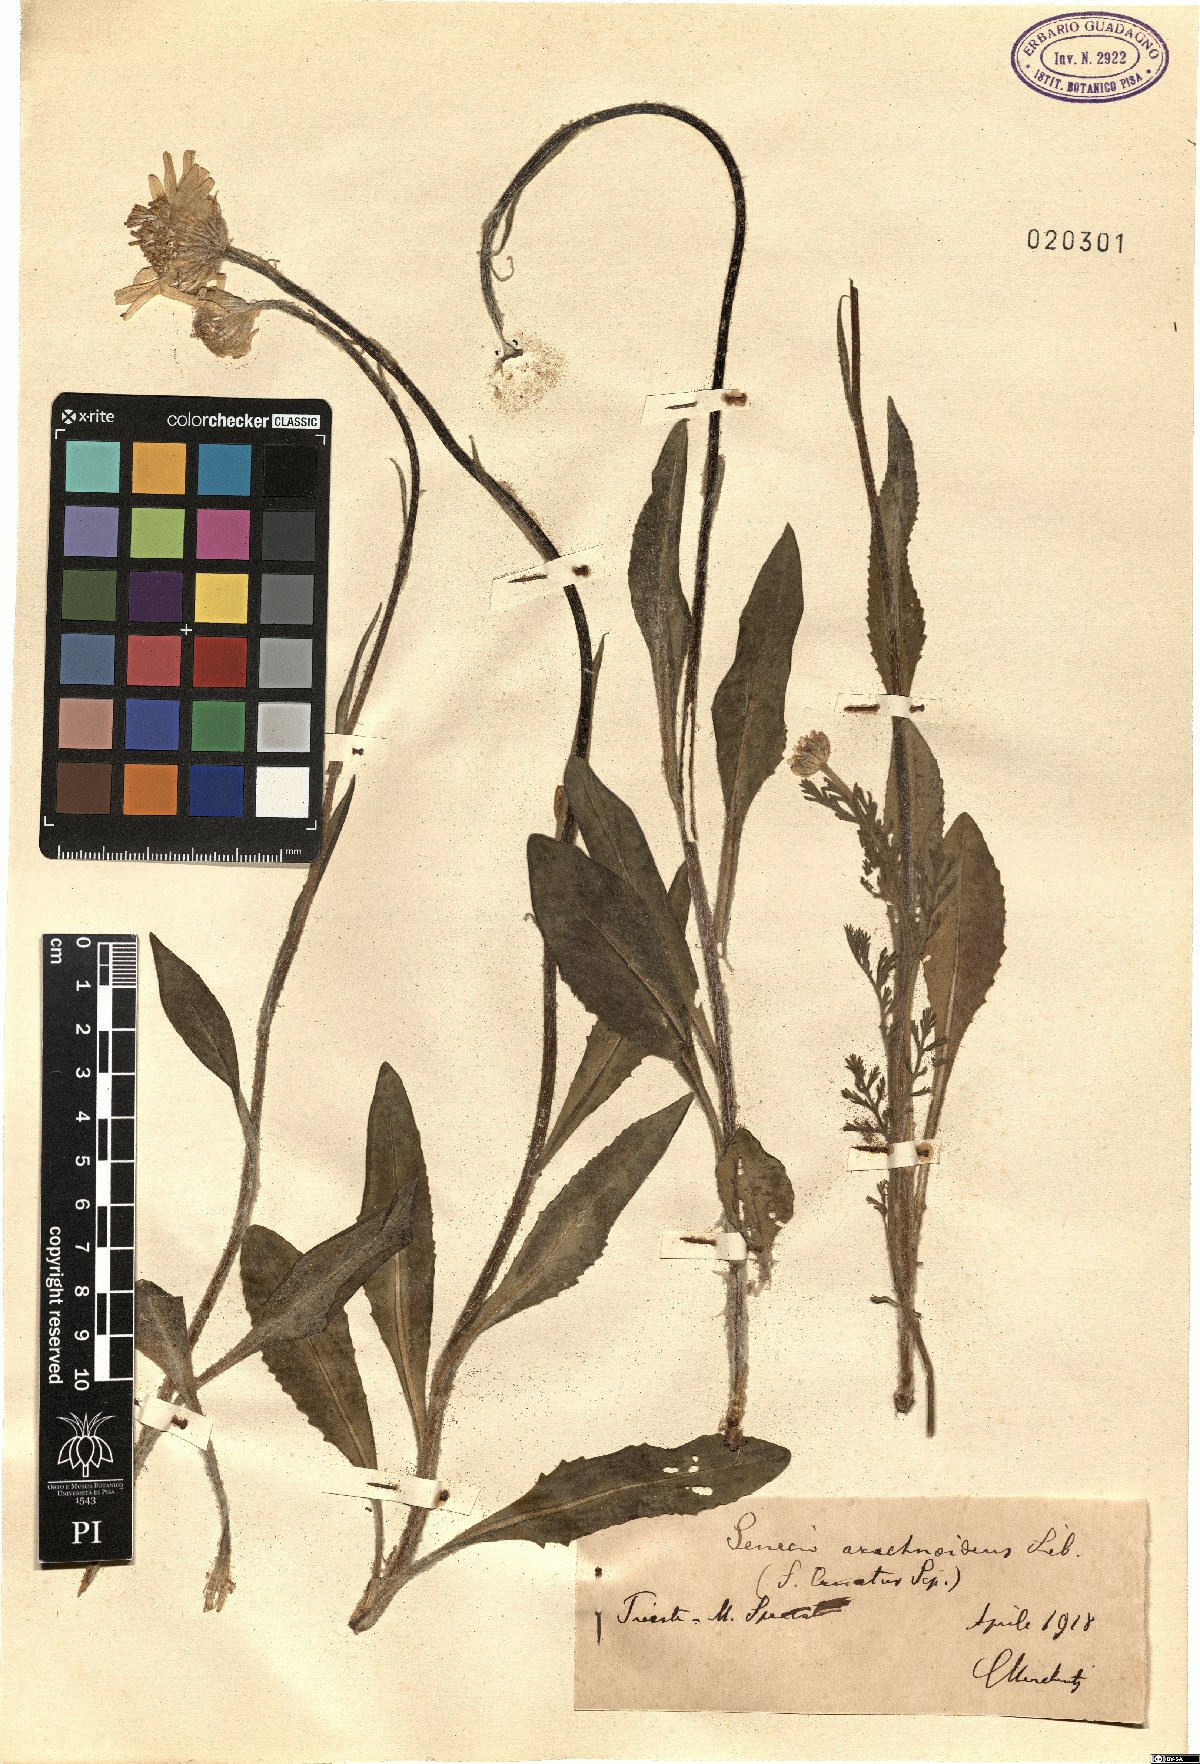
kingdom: Plantae
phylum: Tracheophyta
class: Magnoliopsida
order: Asterales
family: Asteraceae
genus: Senecio
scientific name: Senecio scopolii
